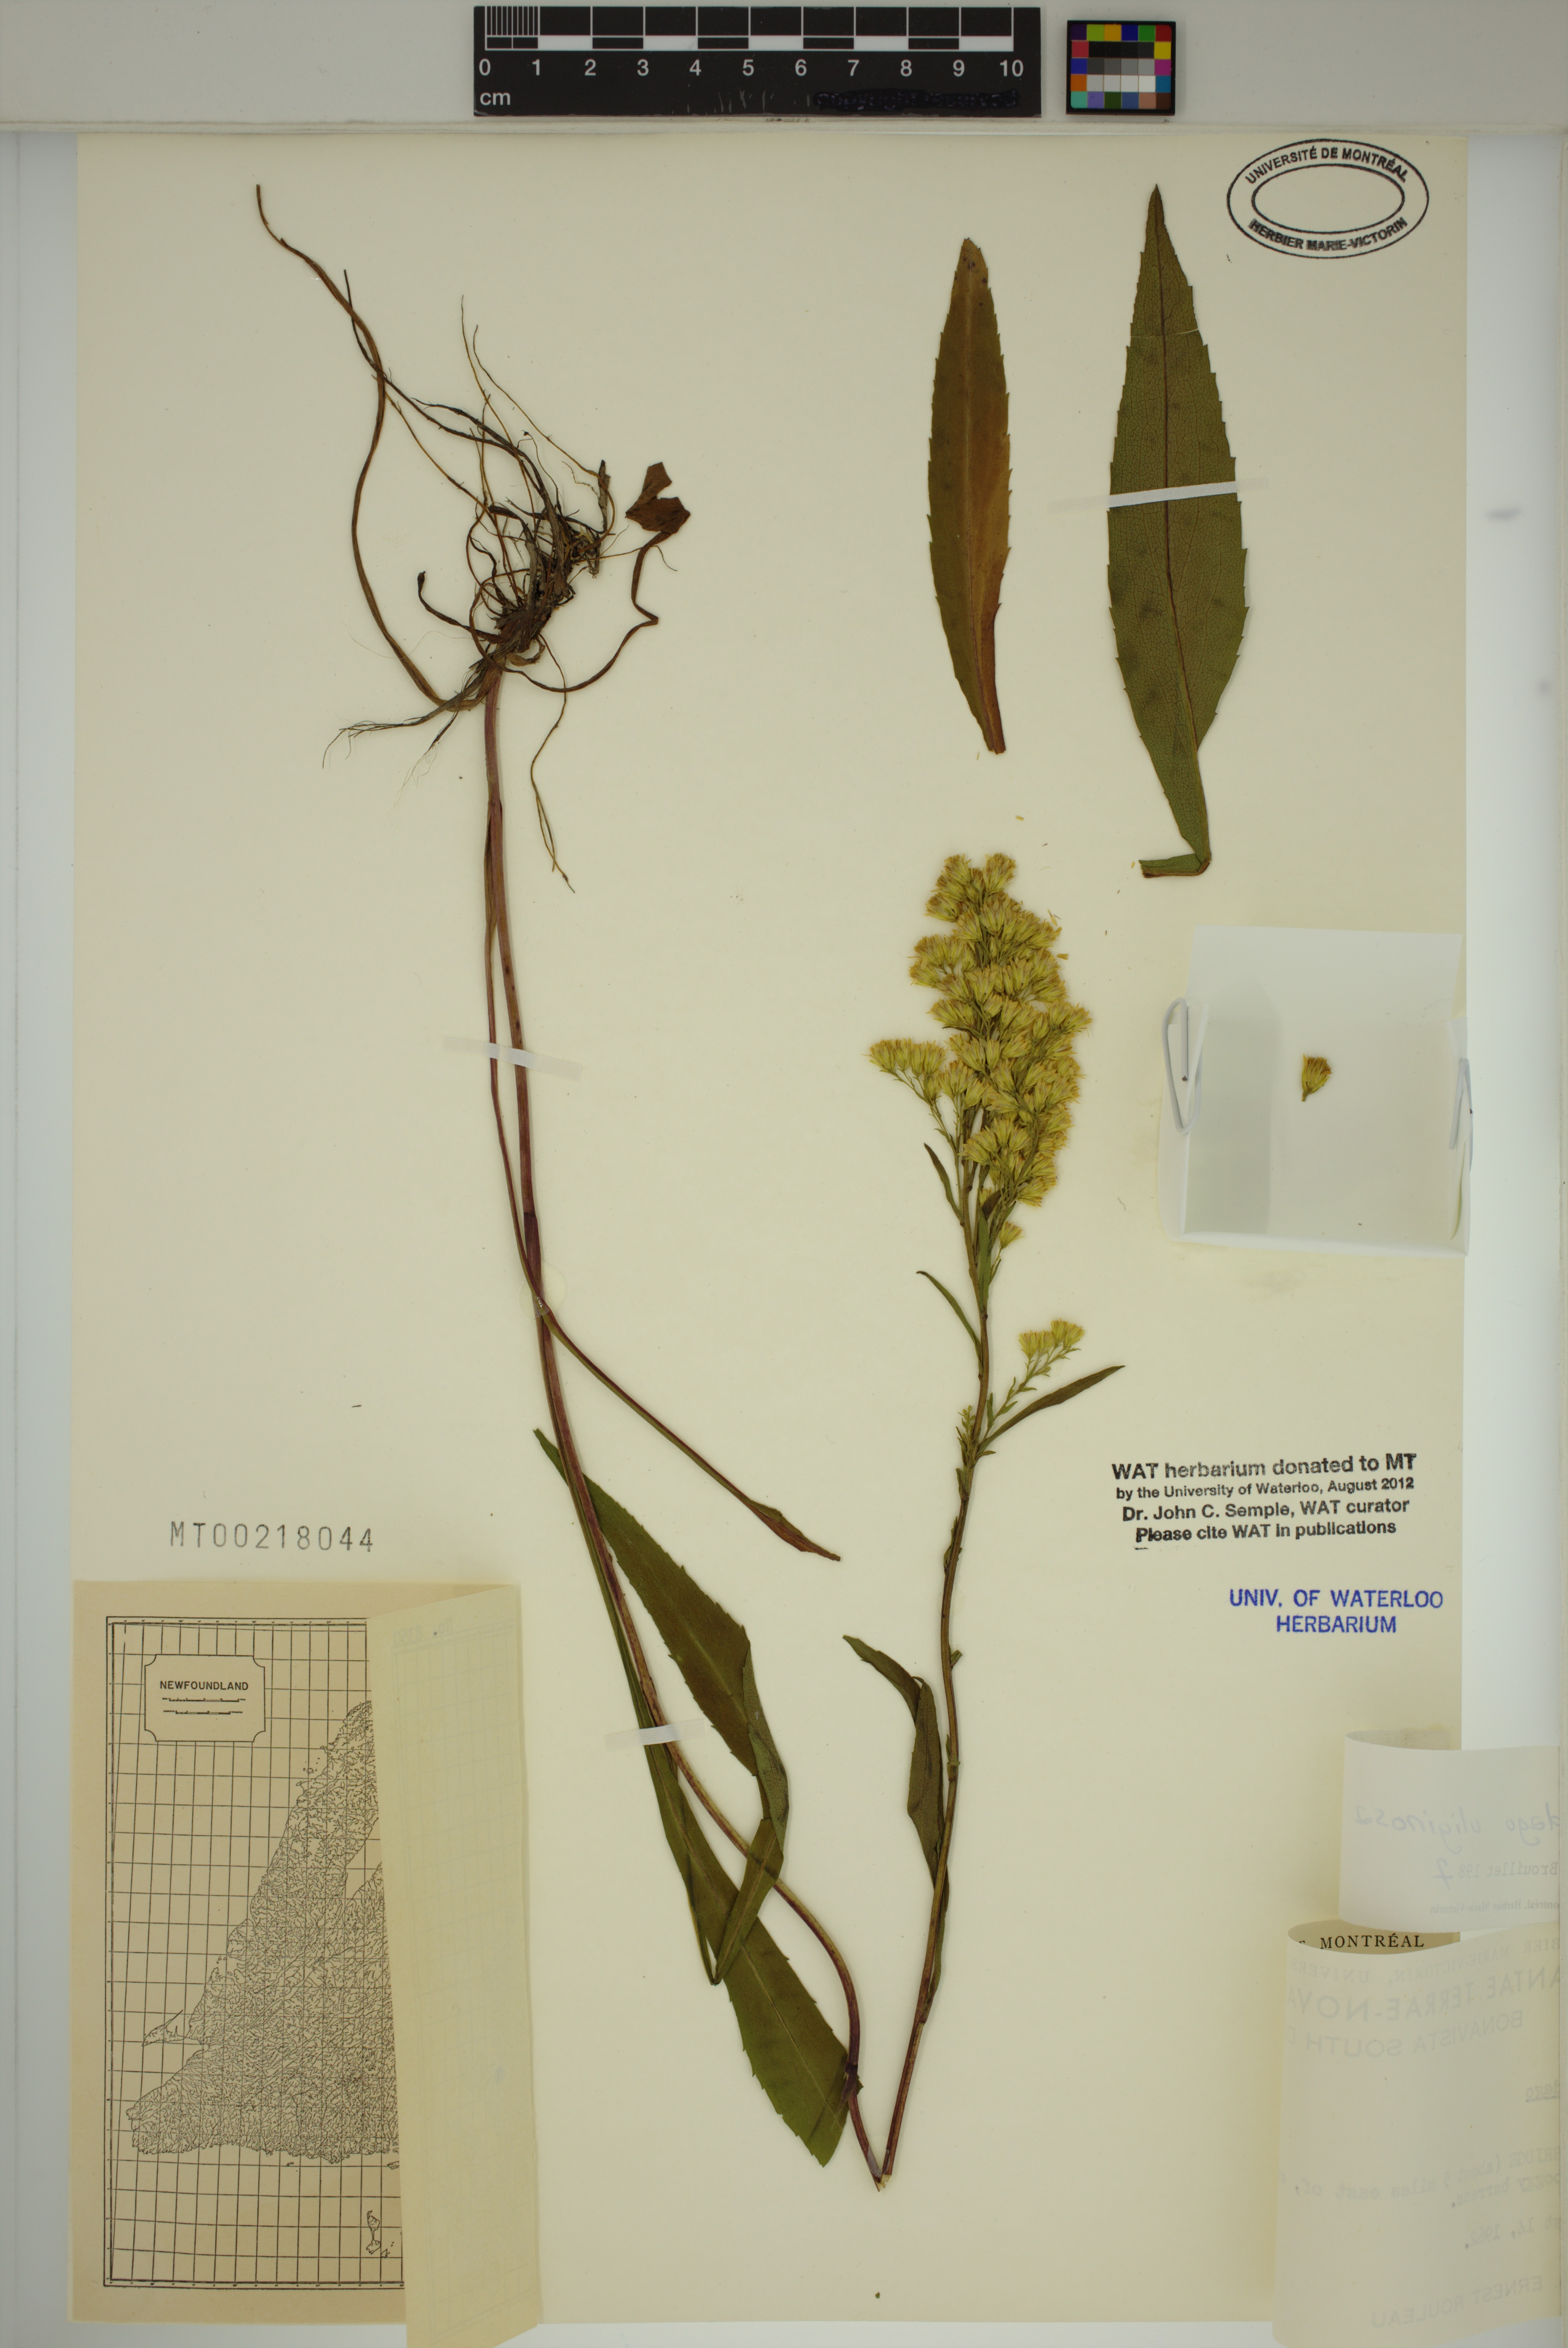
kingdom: Plantae
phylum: Tracheophyta
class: Magnoliopsida
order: Asterales
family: Asteraceae
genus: Solidago
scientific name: Solidago uliginosa
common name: Bog goldenrod
